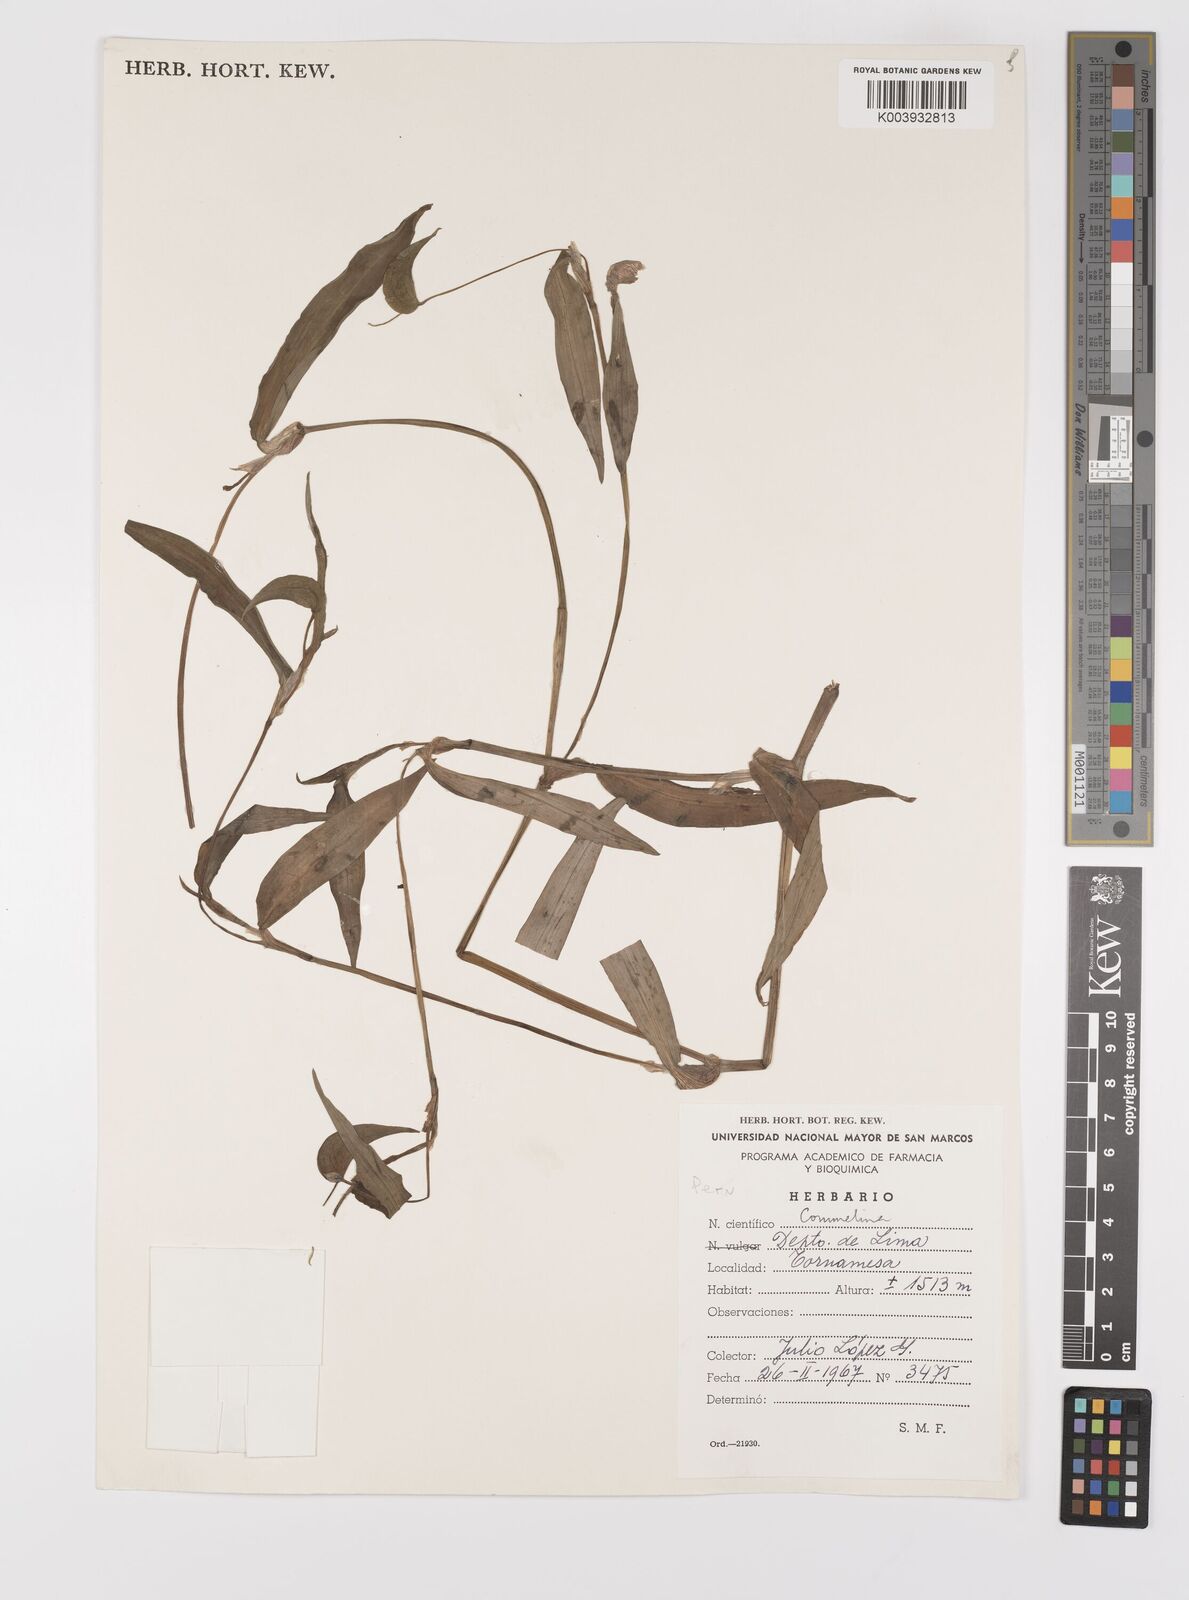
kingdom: Plantae
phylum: Tracheophyta
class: Liliopsida
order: Commelinales
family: Commelinaceae
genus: Commelina
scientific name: Commelina
